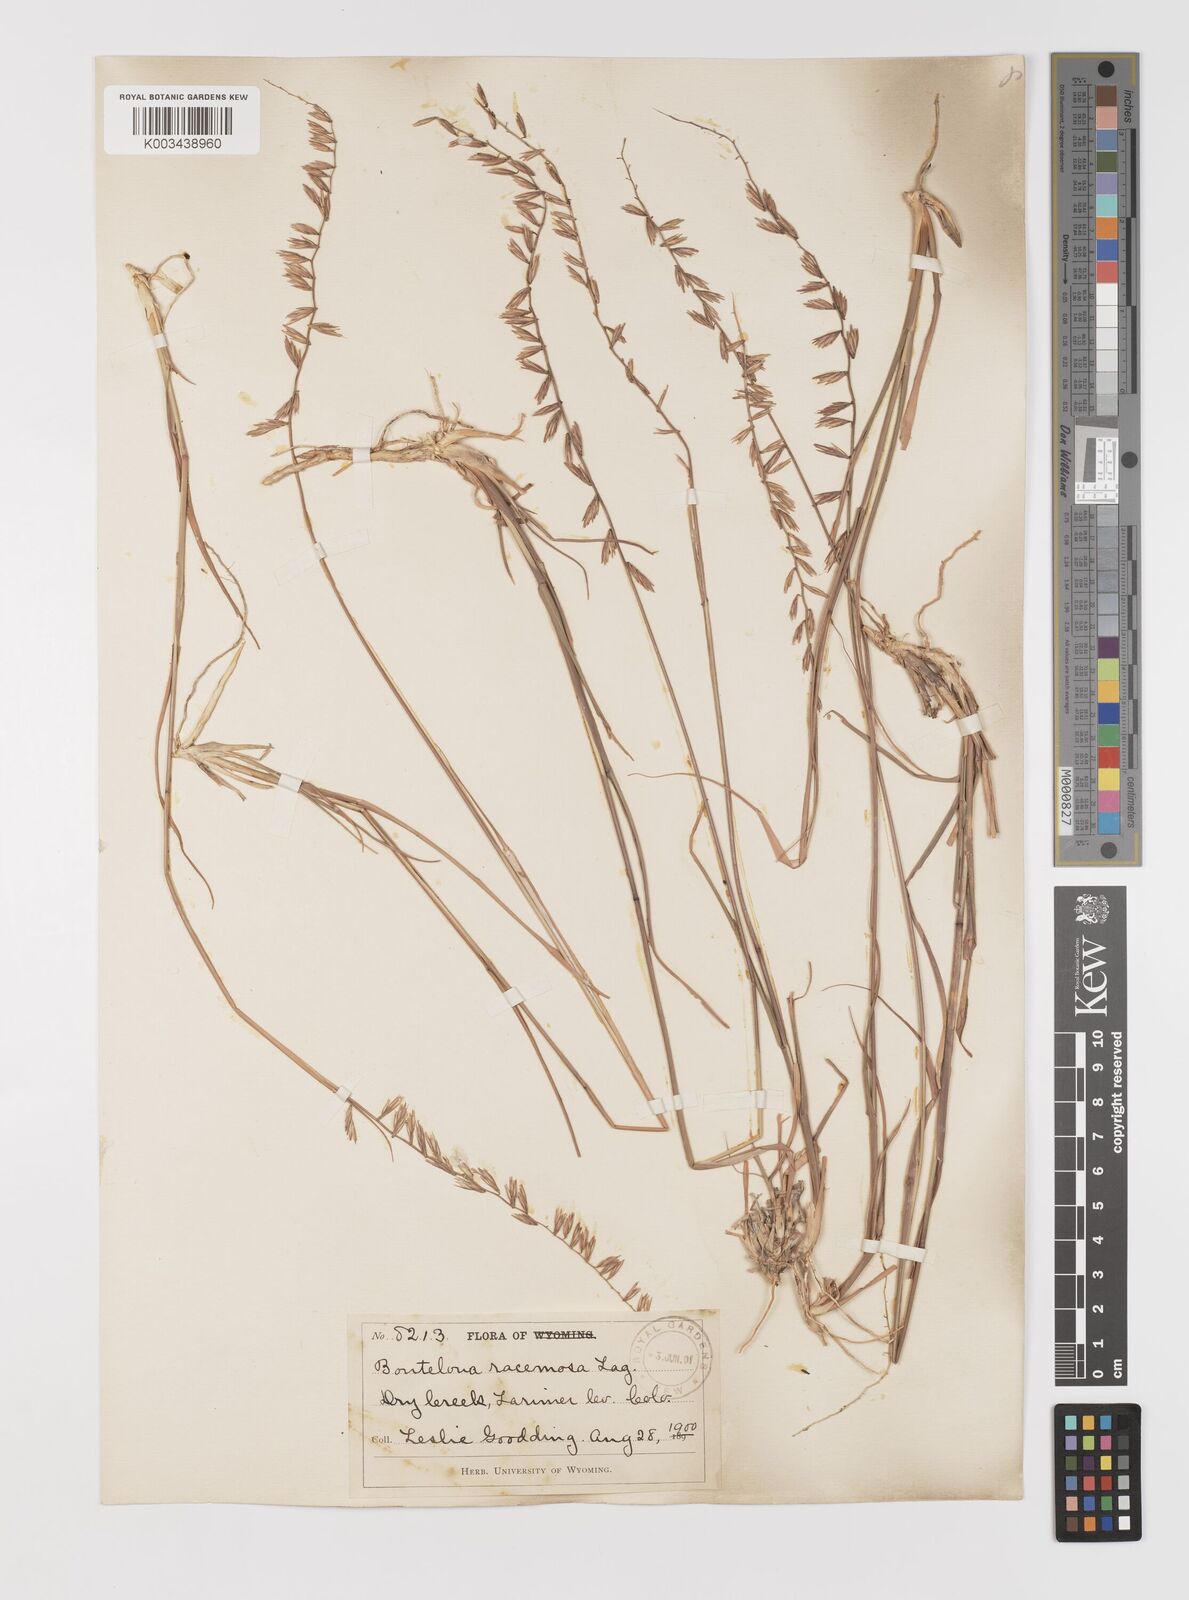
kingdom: Plantae
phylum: Tracheophyta
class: Liliopsida
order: Poales
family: Poaceae
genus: Bouteloua
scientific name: Bouteloua curtipendula
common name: Side-oats grama
